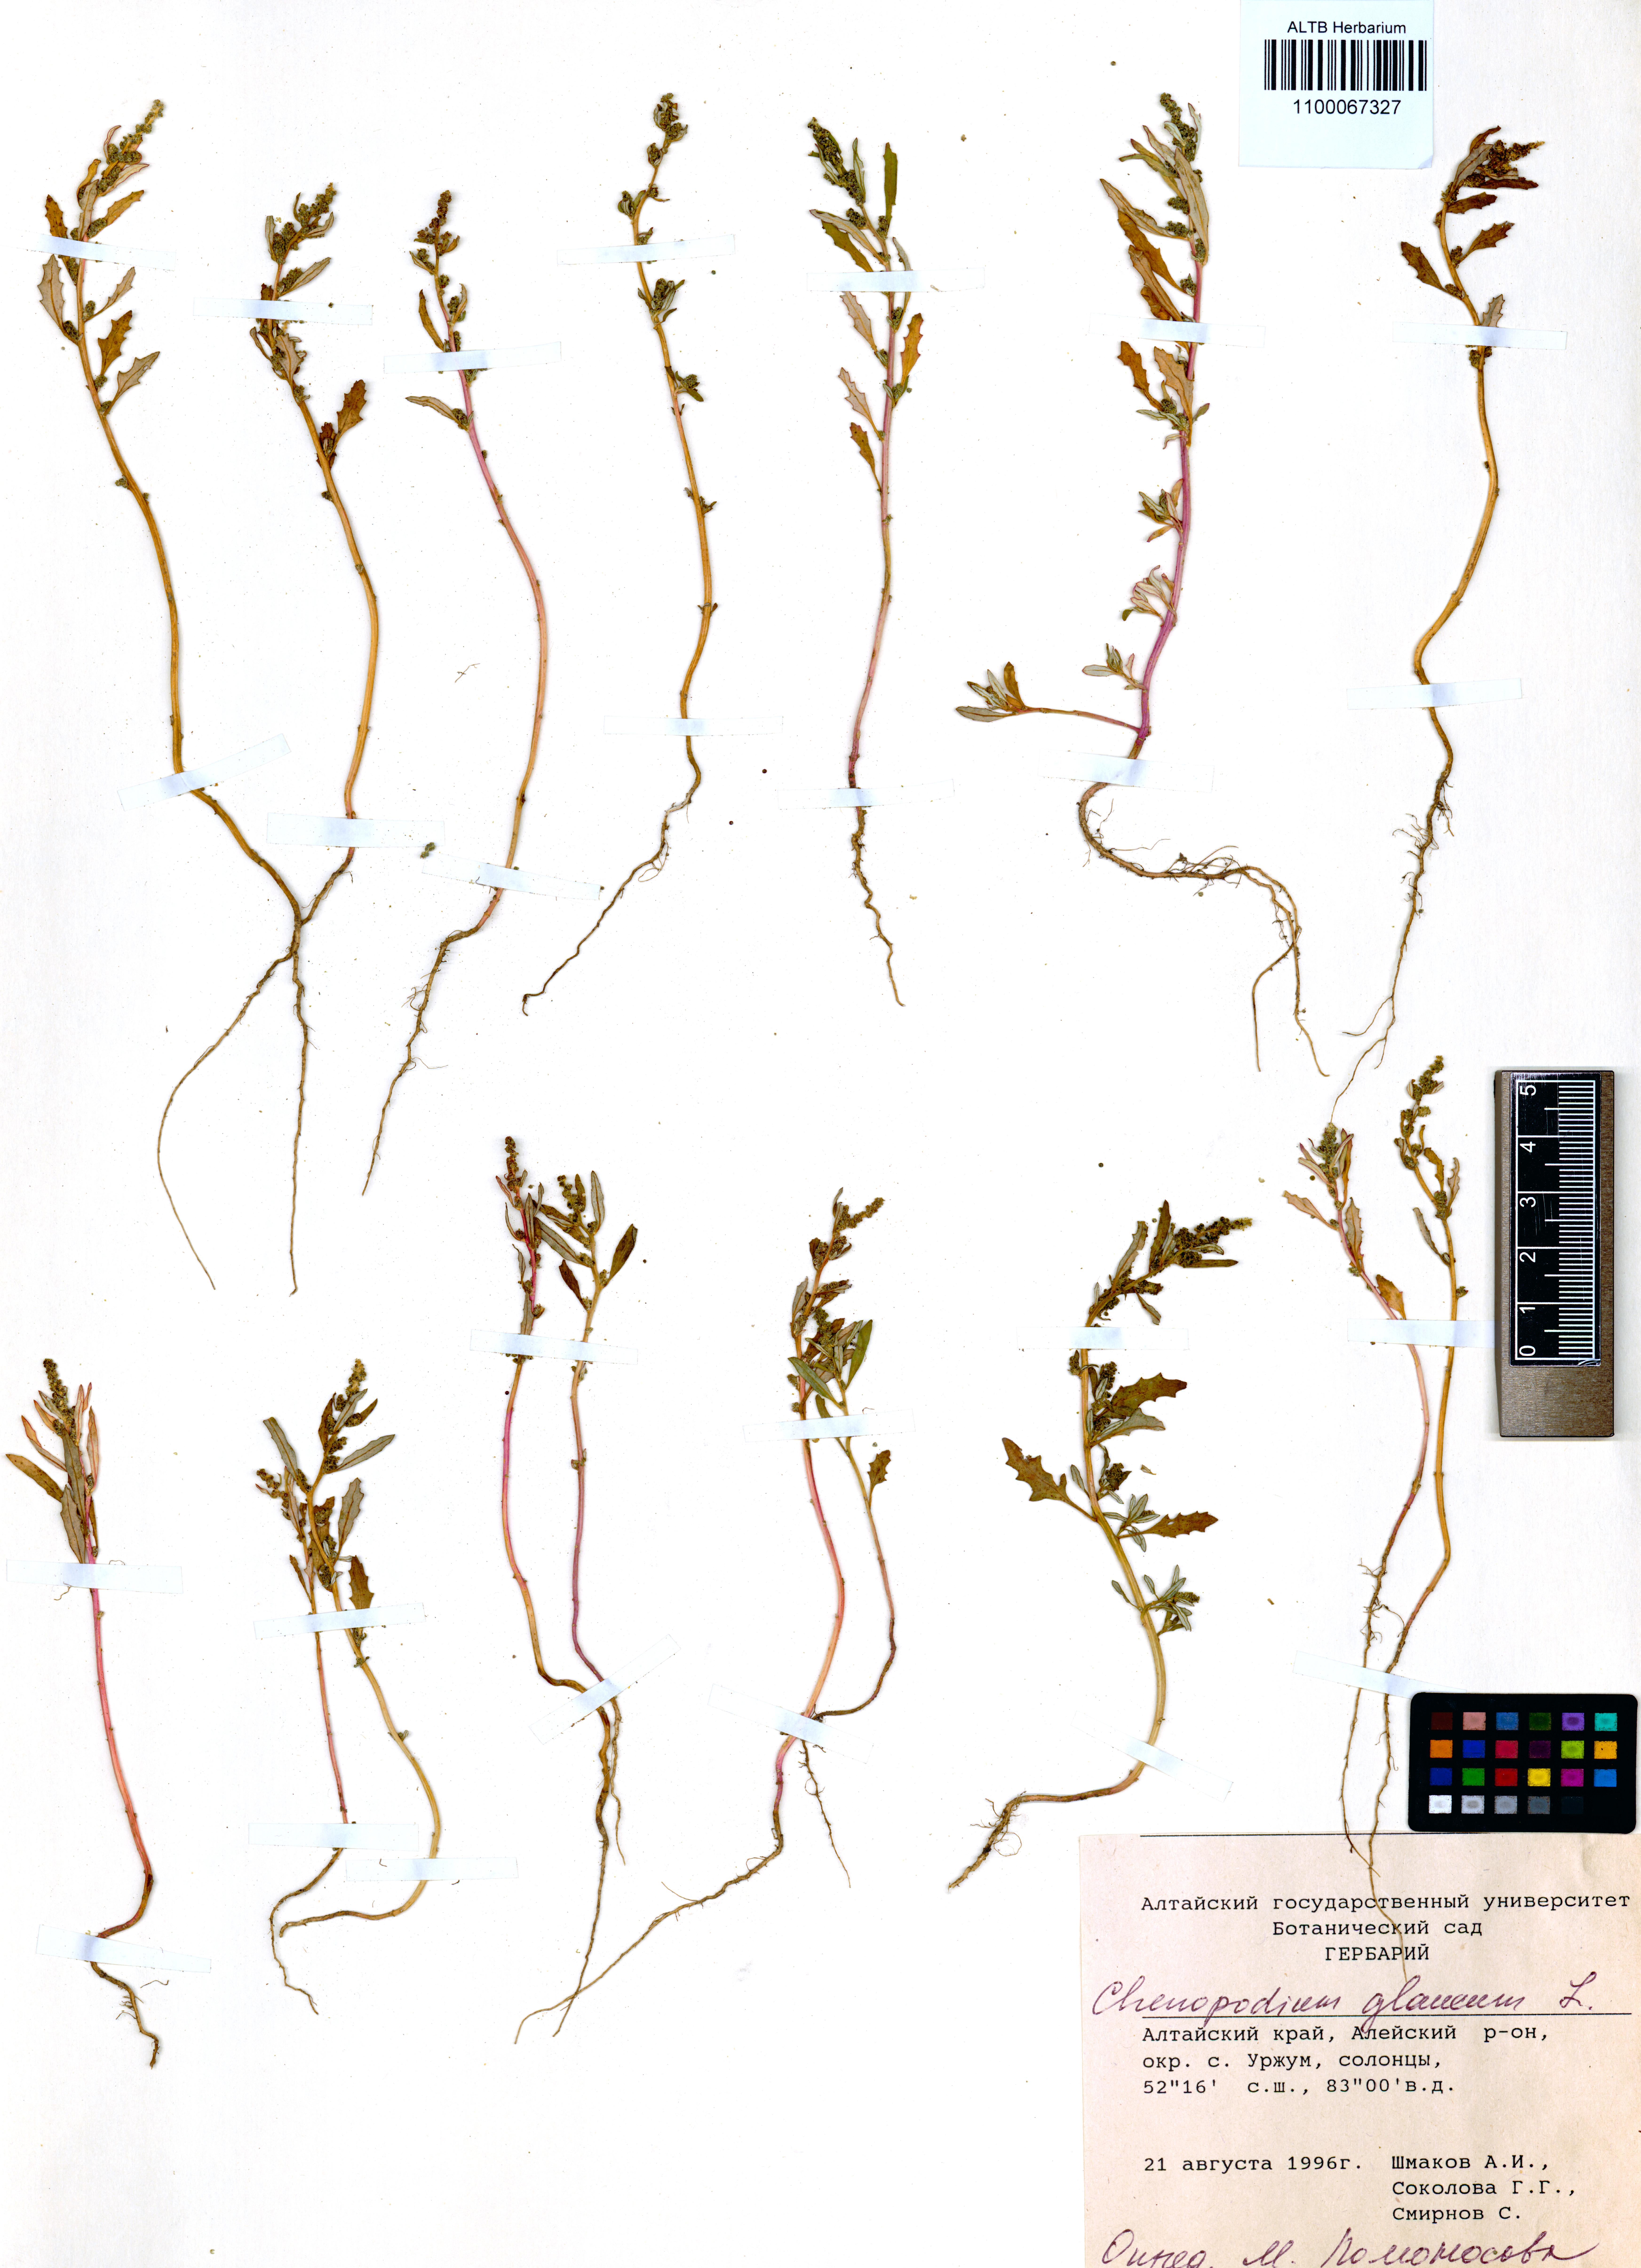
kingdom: Plantae
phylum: Tracheophyta
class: Magnoliopsida
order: Caryophyllales
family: Amaranthaceae
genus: Oxybasis
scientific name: Oxybasis glauca
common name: Glaucous goosefoot
